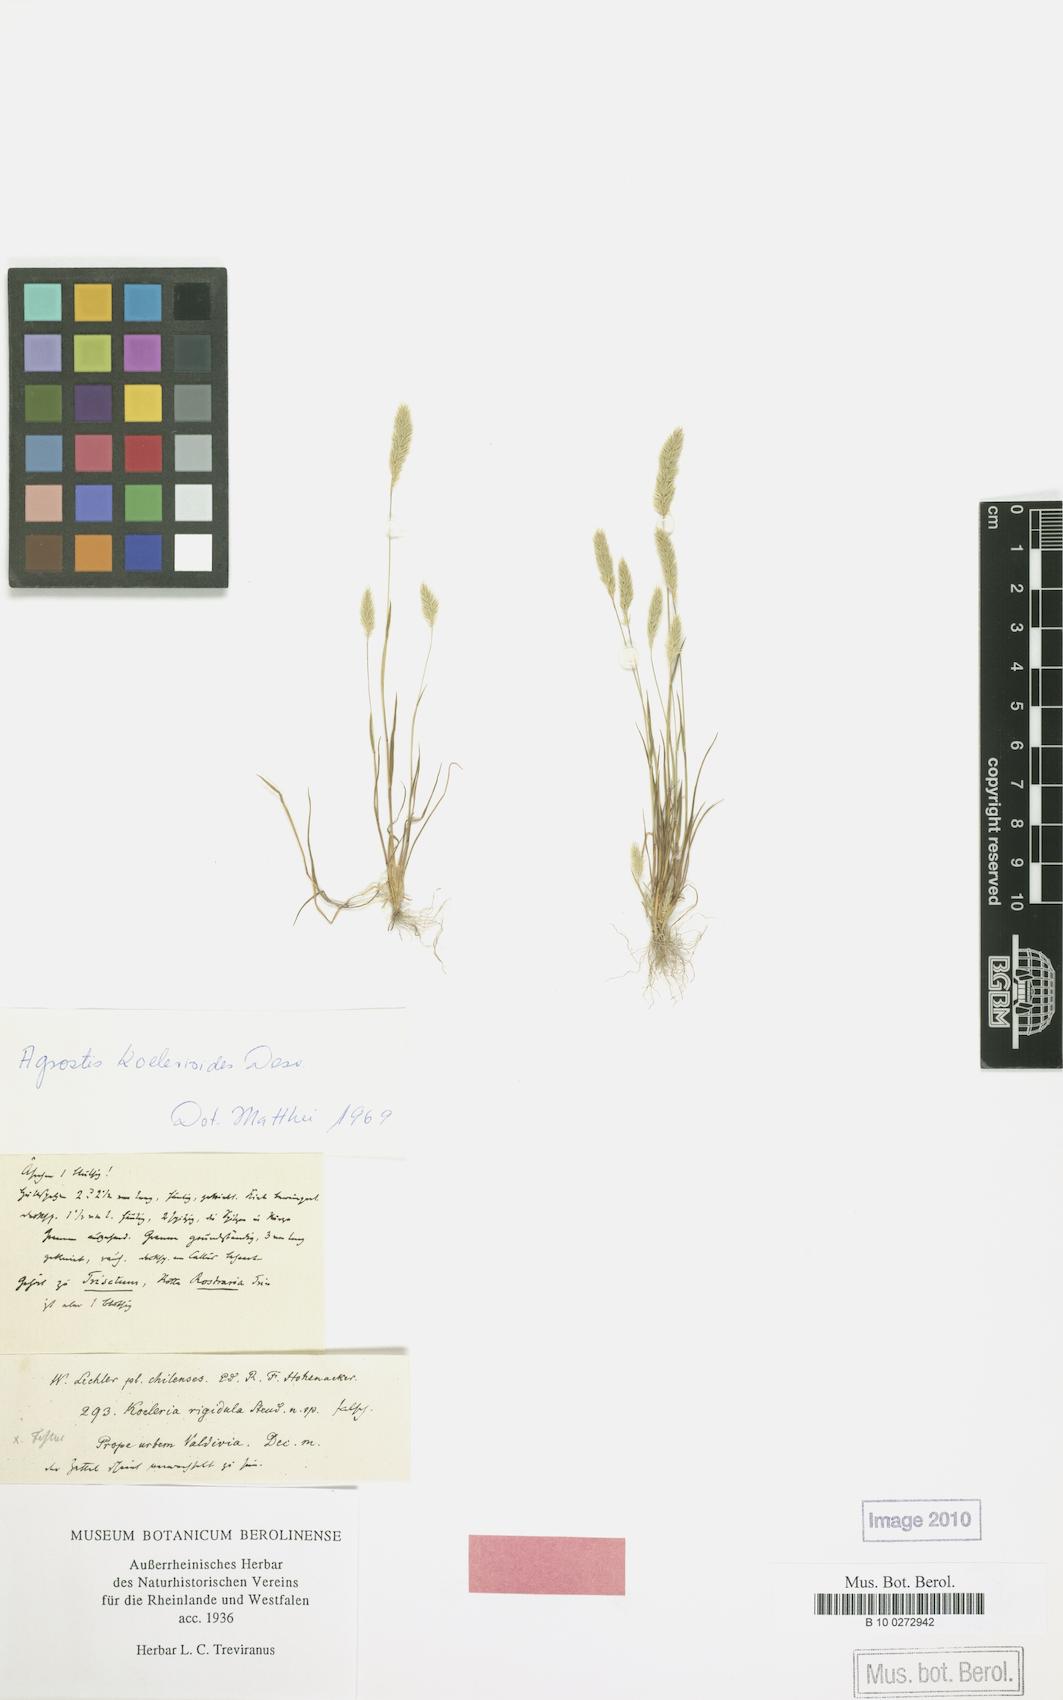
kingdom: Plantae
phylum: Tracheophyta
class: Liliopsida
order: Poales
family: Poaceae
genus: Poa
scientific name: Poa resinulosa
